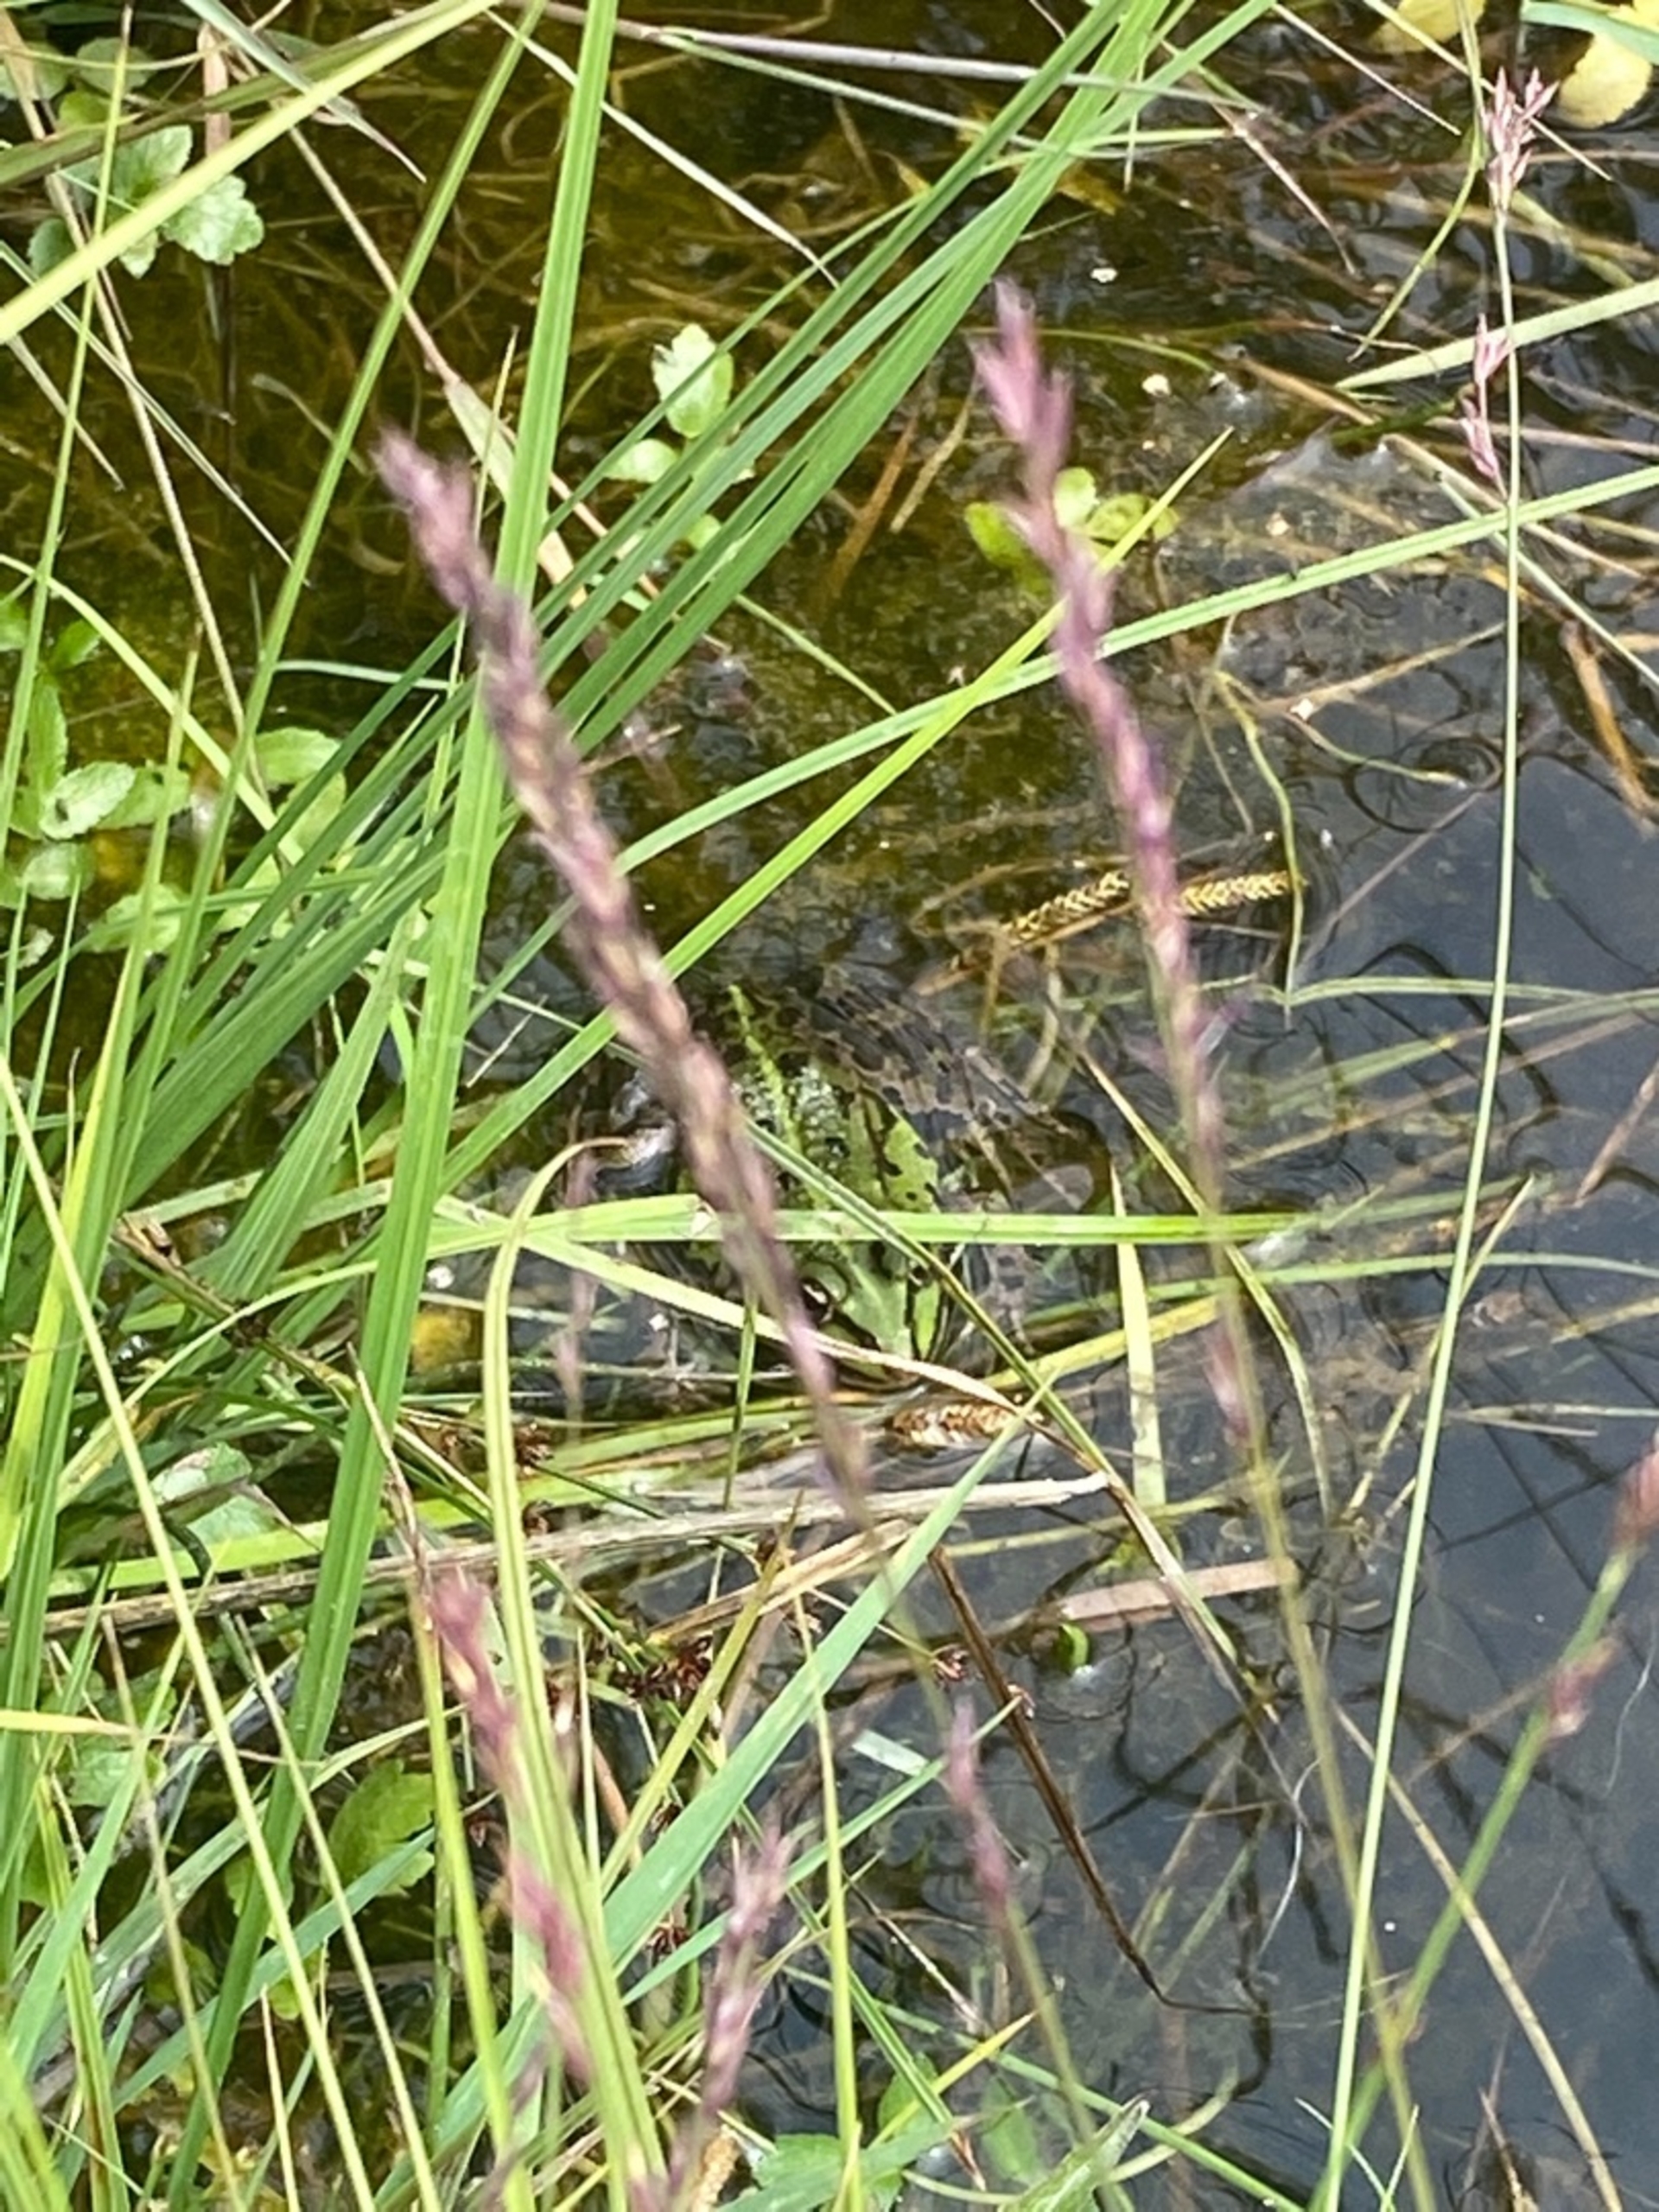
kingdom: Animalia
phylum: Chordata
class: Amphibia
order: Anura
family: Ranidae
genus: Pelophylax
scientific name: Pelophylax lessonae
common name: Grøn frø
